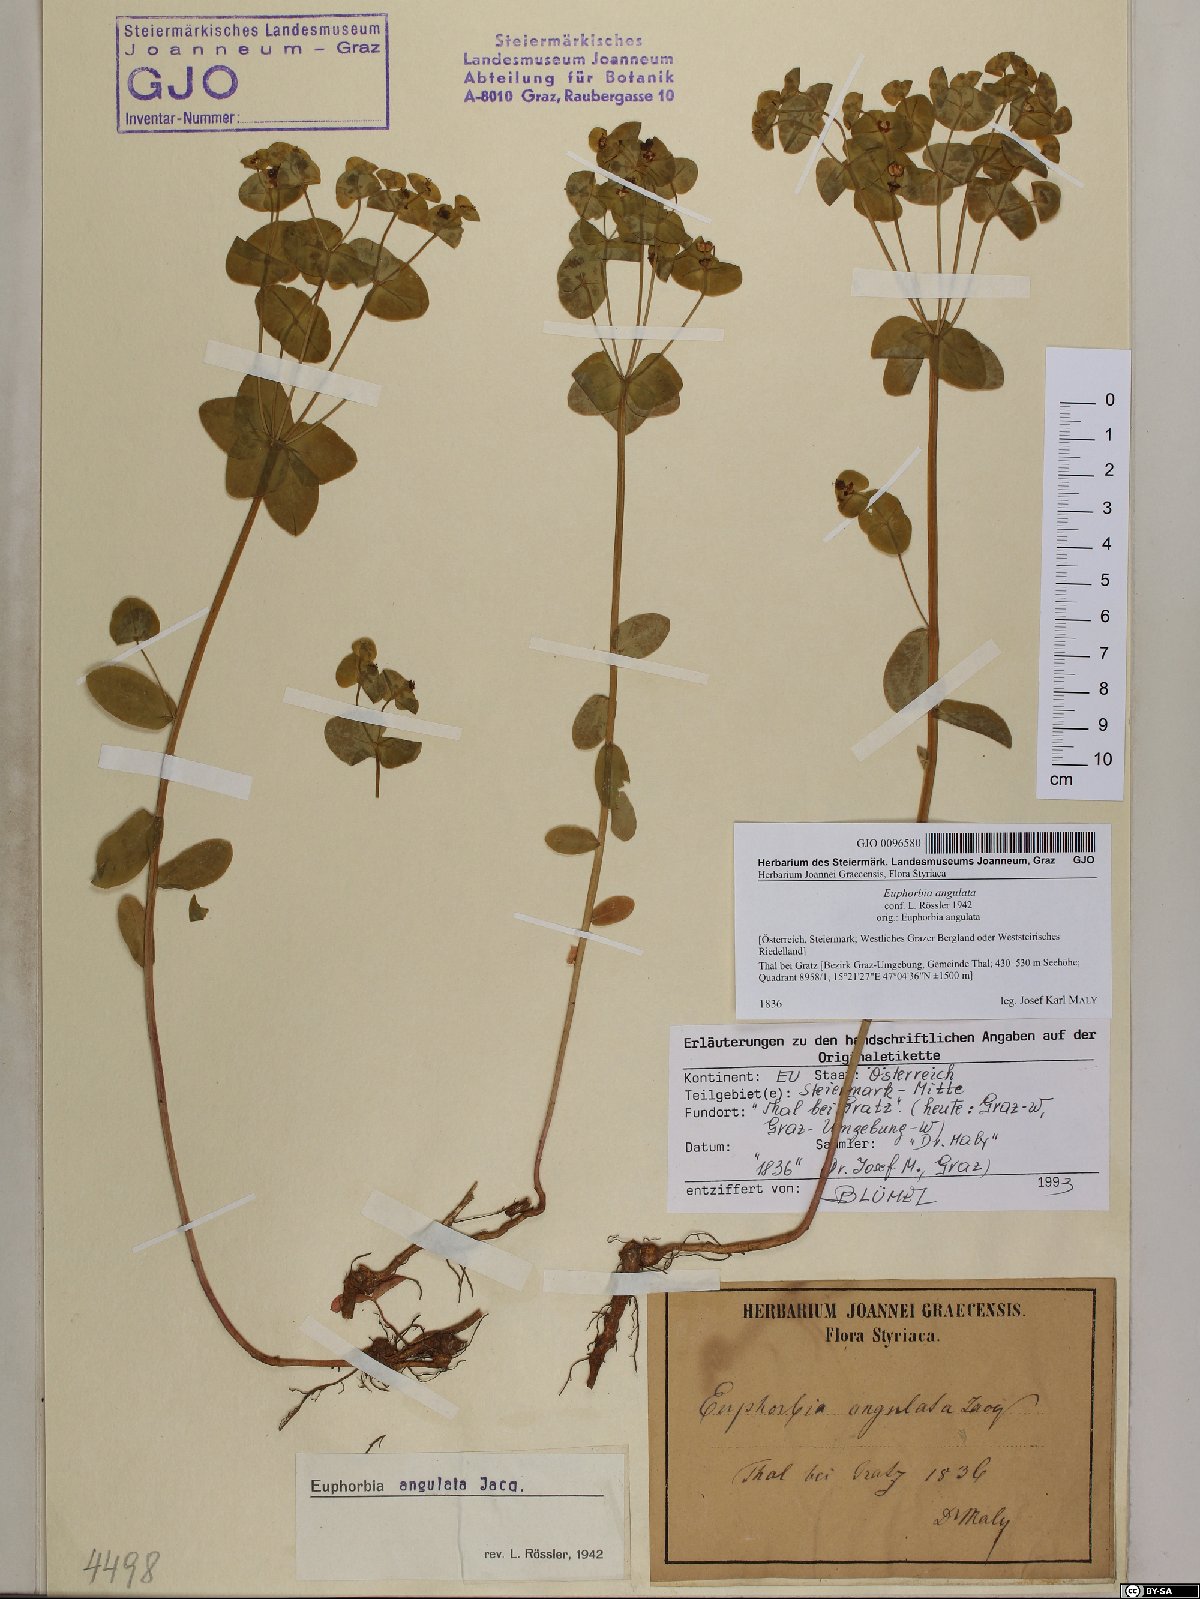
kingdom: Plantae
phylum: Tracheophyta
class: Magnoliopsida
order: Malpighiales
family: Euphorbiaceae
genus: Euphorbia
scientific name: Euphorbia angulata
